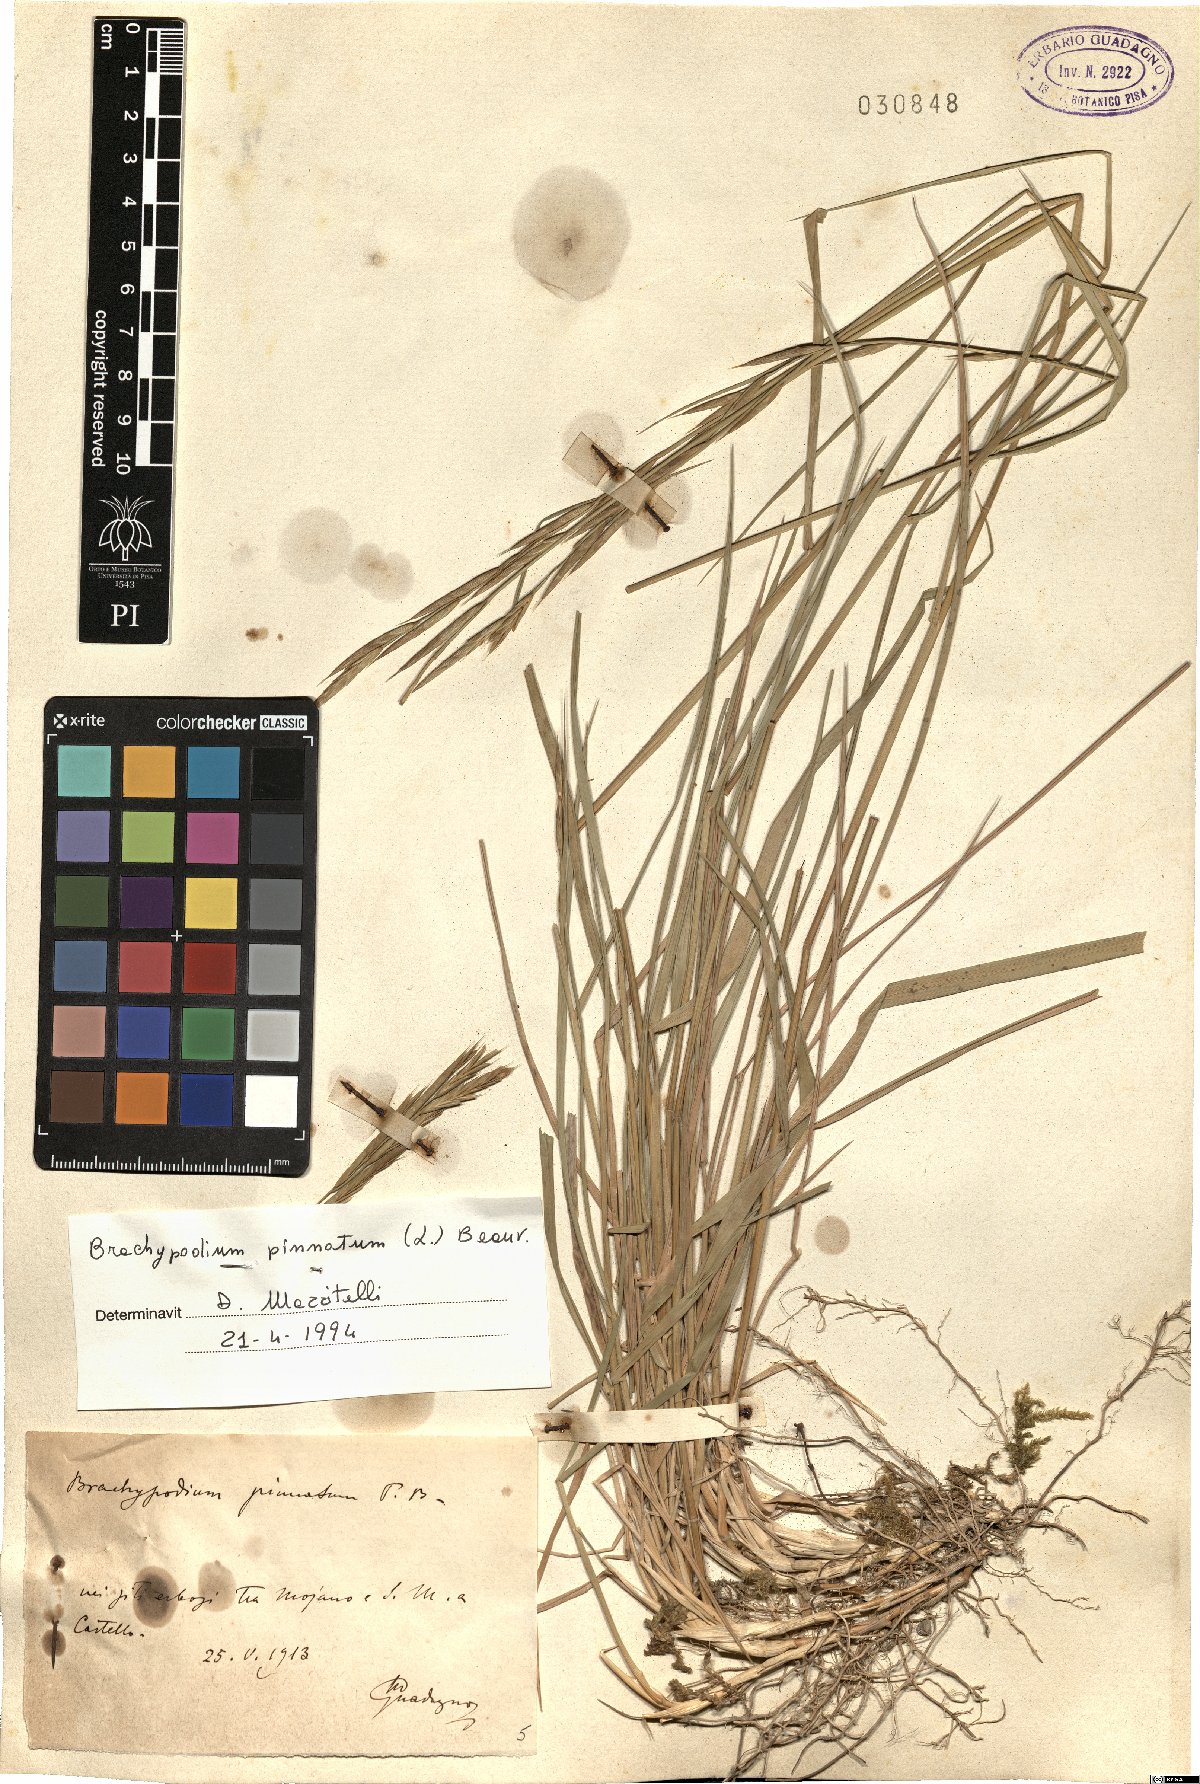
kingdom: Plantae
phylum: Tracheophyta
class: Liliopsida
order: Poales
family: Poaceae
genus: Brachypodium
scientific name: Brachypodium pinnatum
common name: Tor grass
